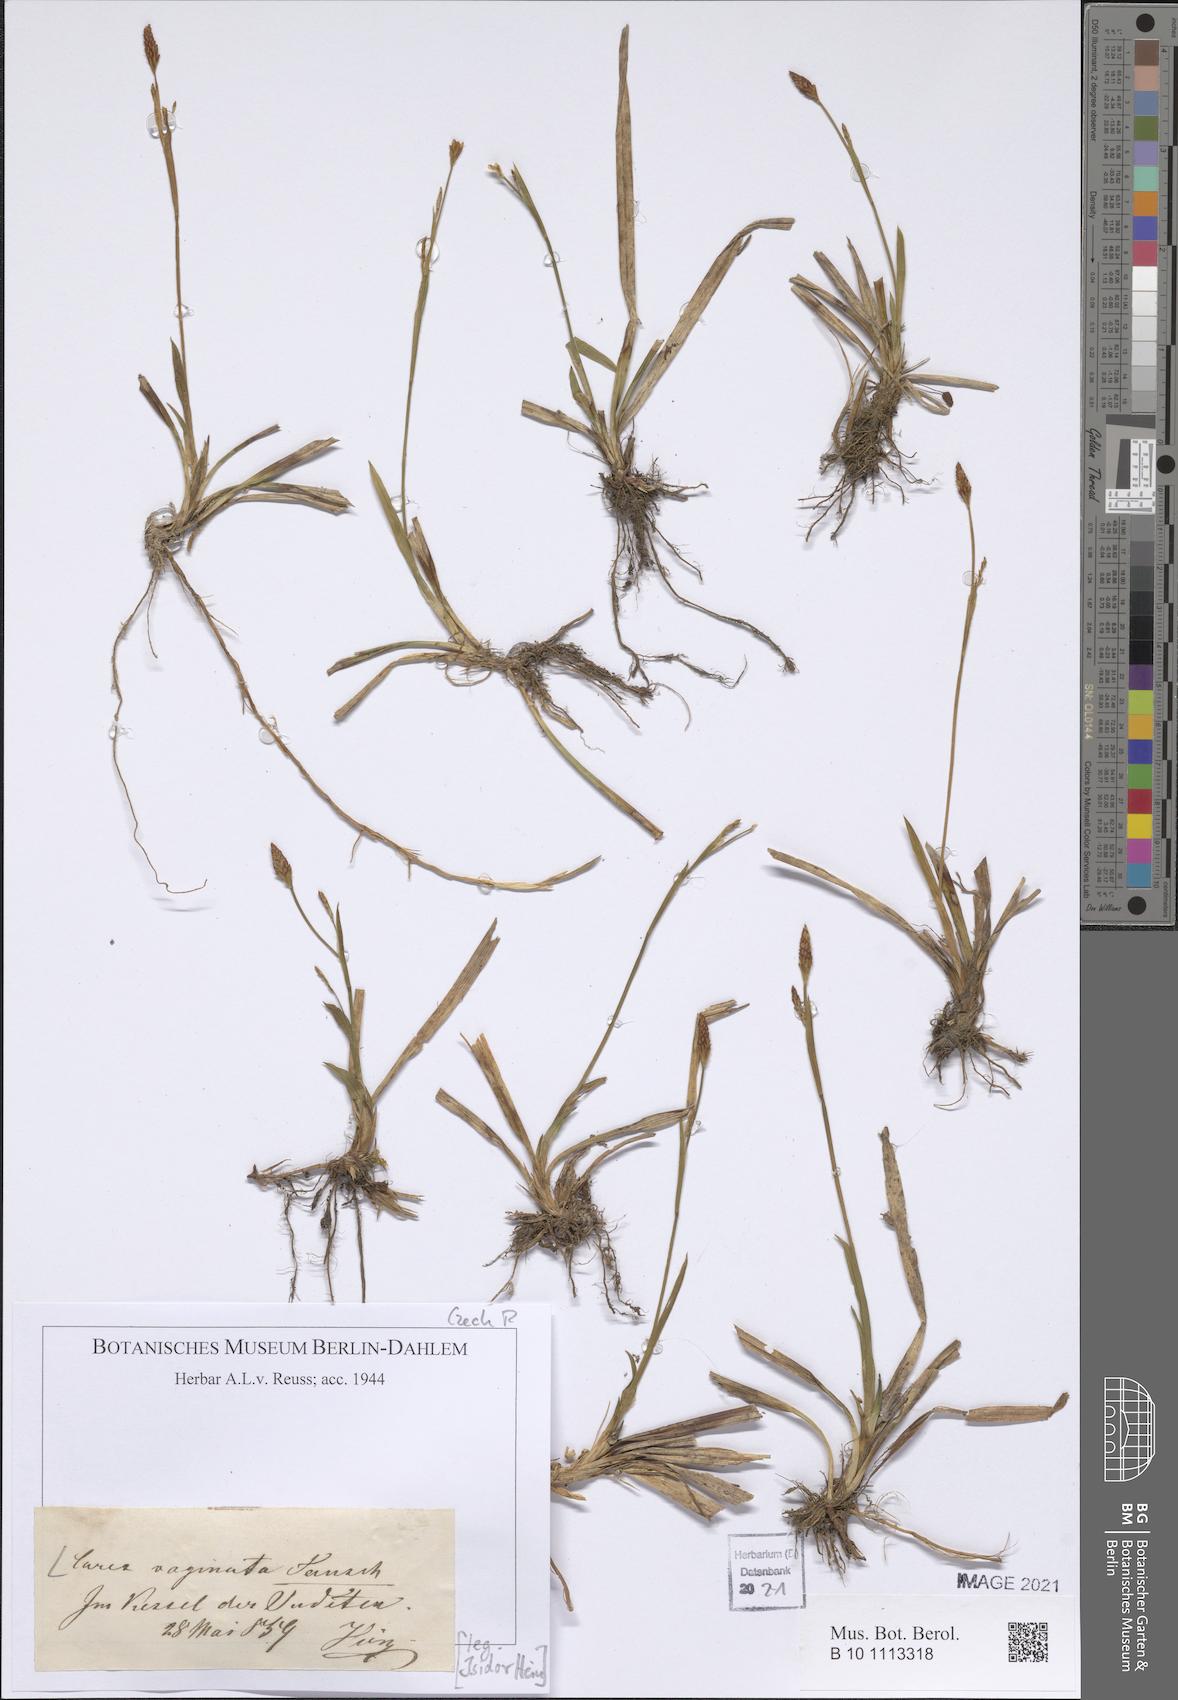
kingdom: Plantae
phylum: Tracheophyta
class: Liliopsida
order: Poales
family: Cyperaceae
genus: Carex
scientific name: Carex vaginata
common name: Sheathed sedge
